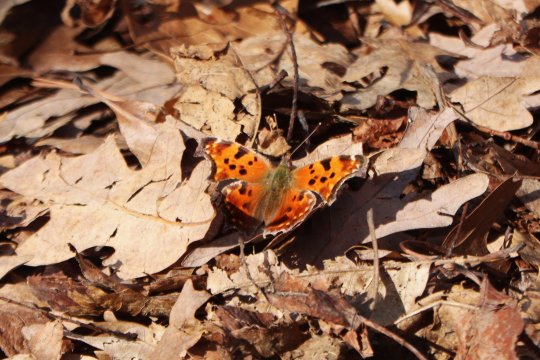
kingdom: Animalia
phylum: Arthropoda
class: Insecta
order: Lepidoptera
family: Nymphalidae
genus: Polygonia
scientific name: Polygonia comma
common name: Eastern Comma
